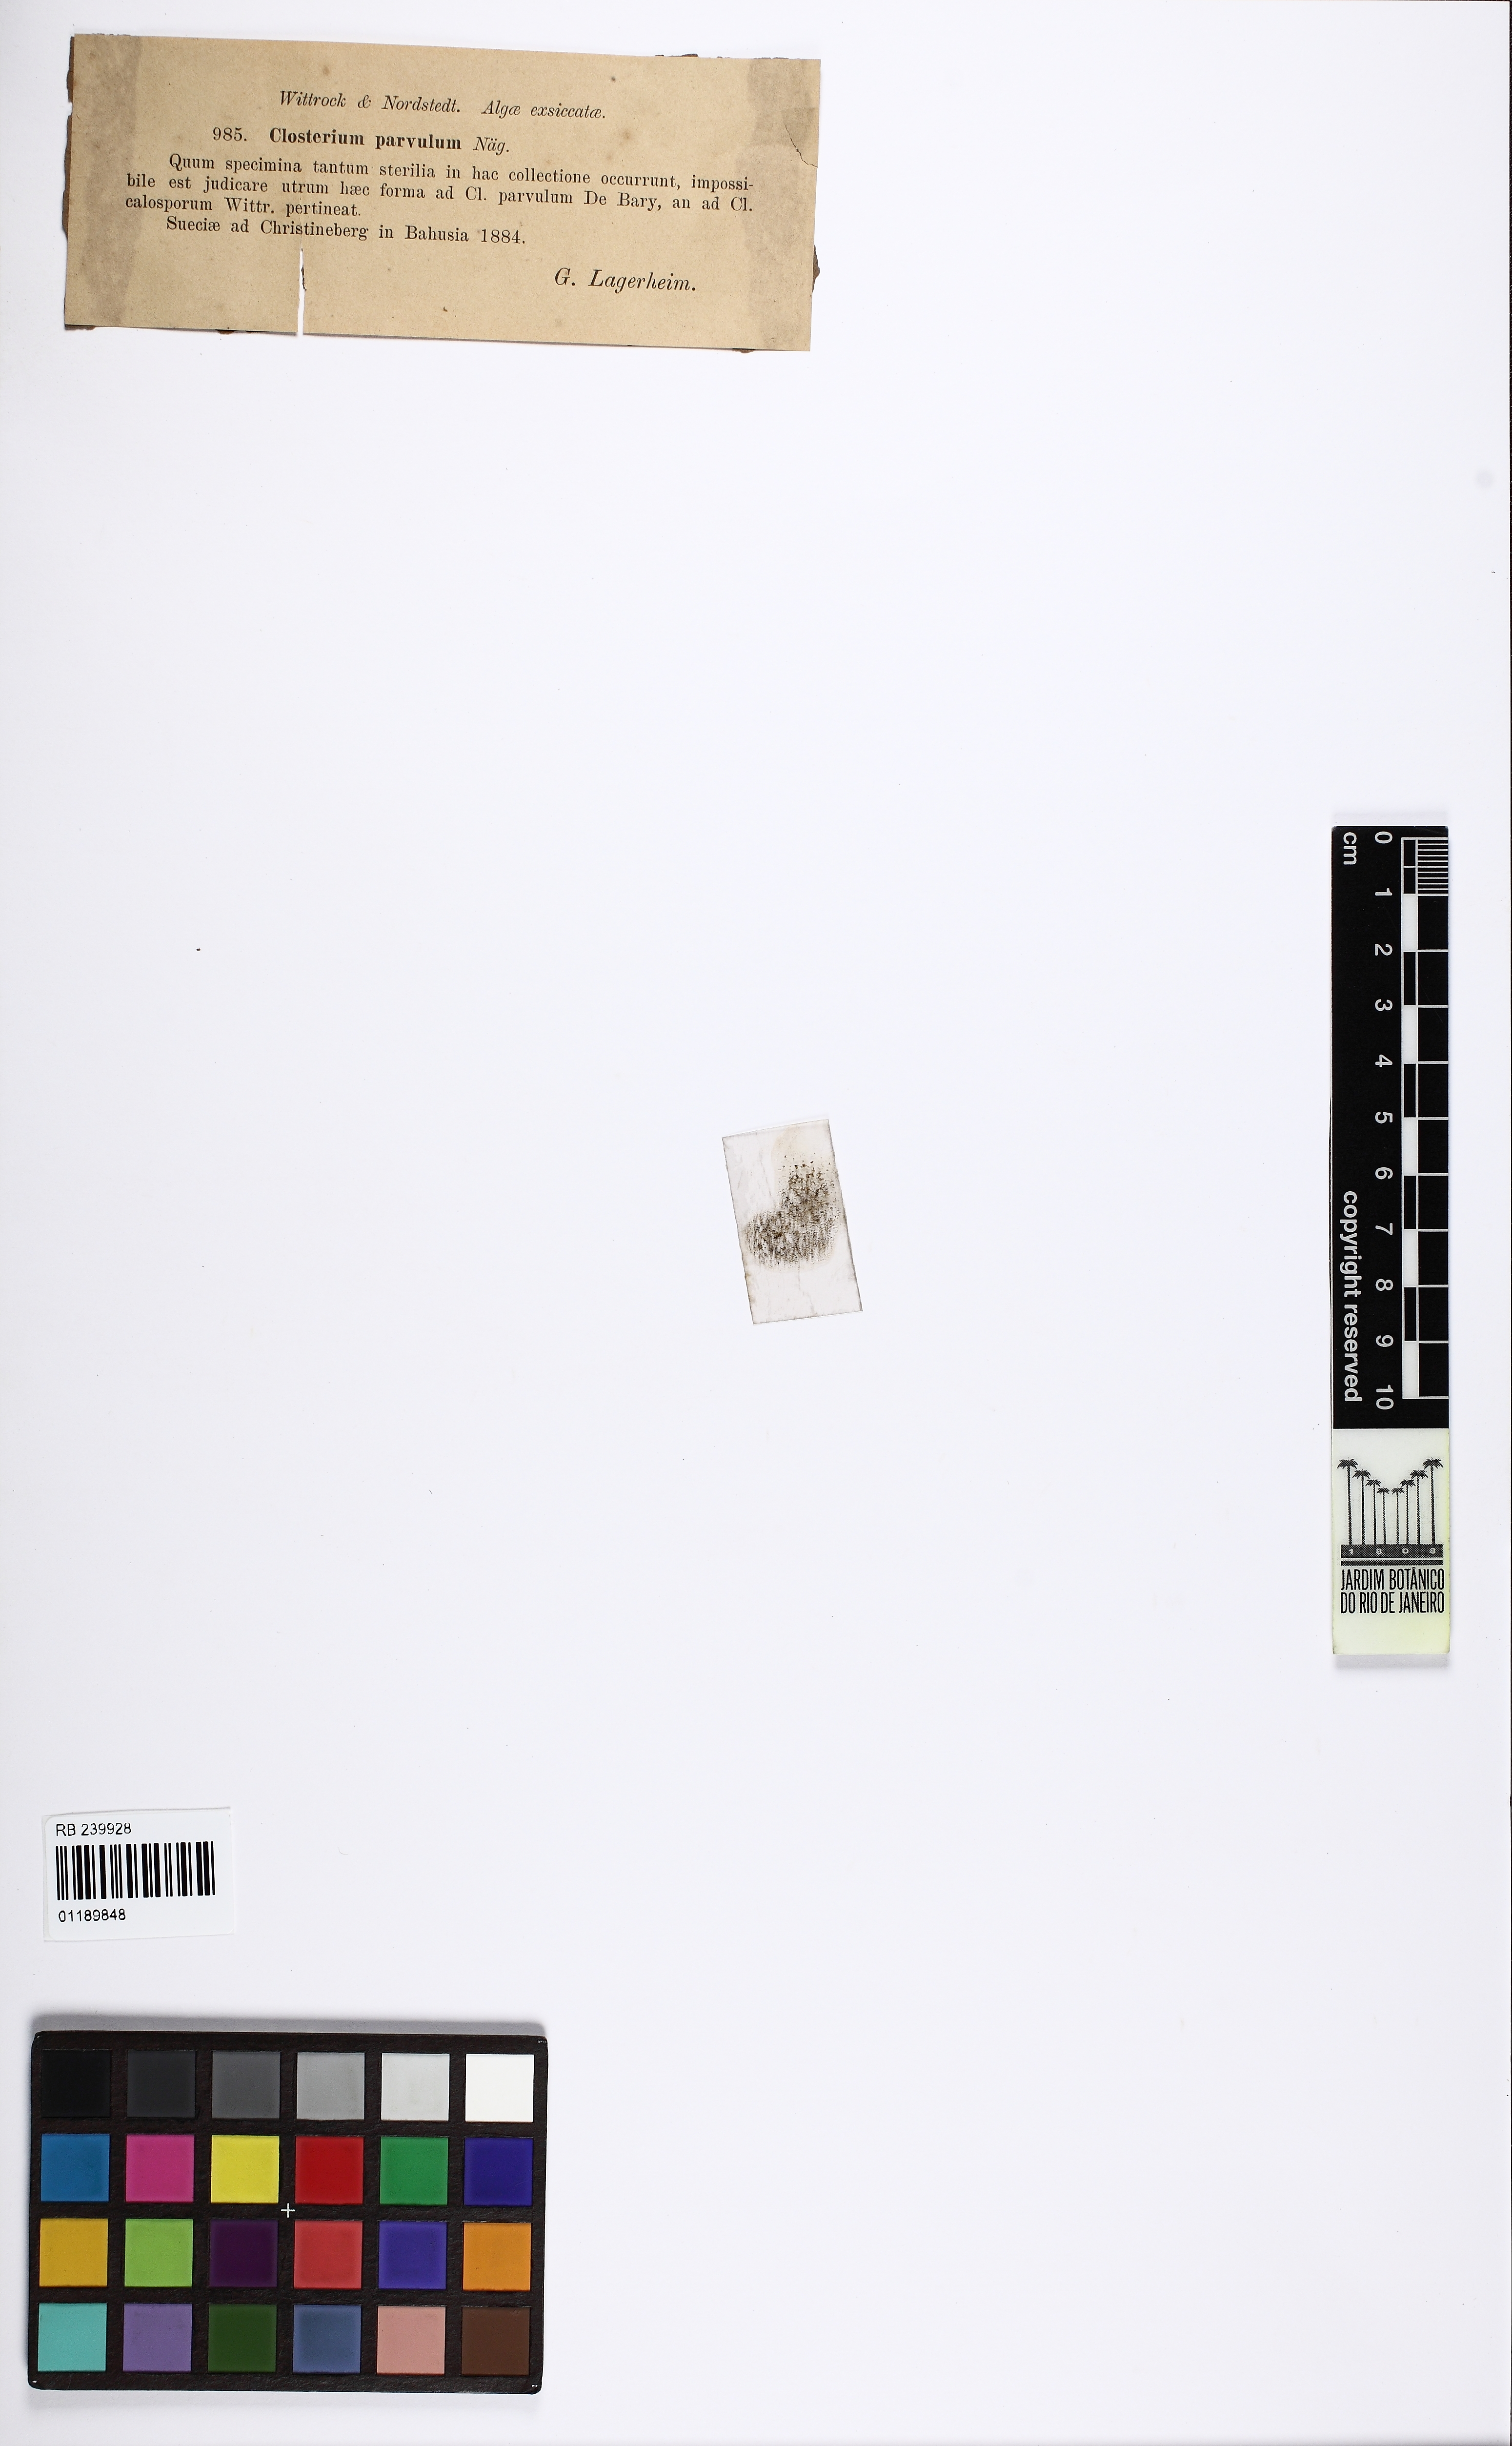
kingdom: Plantae
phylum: Charophyta
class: Zygnematophyceae
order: Zygnematales
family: Closteriaceae
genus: Closterium
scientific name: Closterium parvulum
